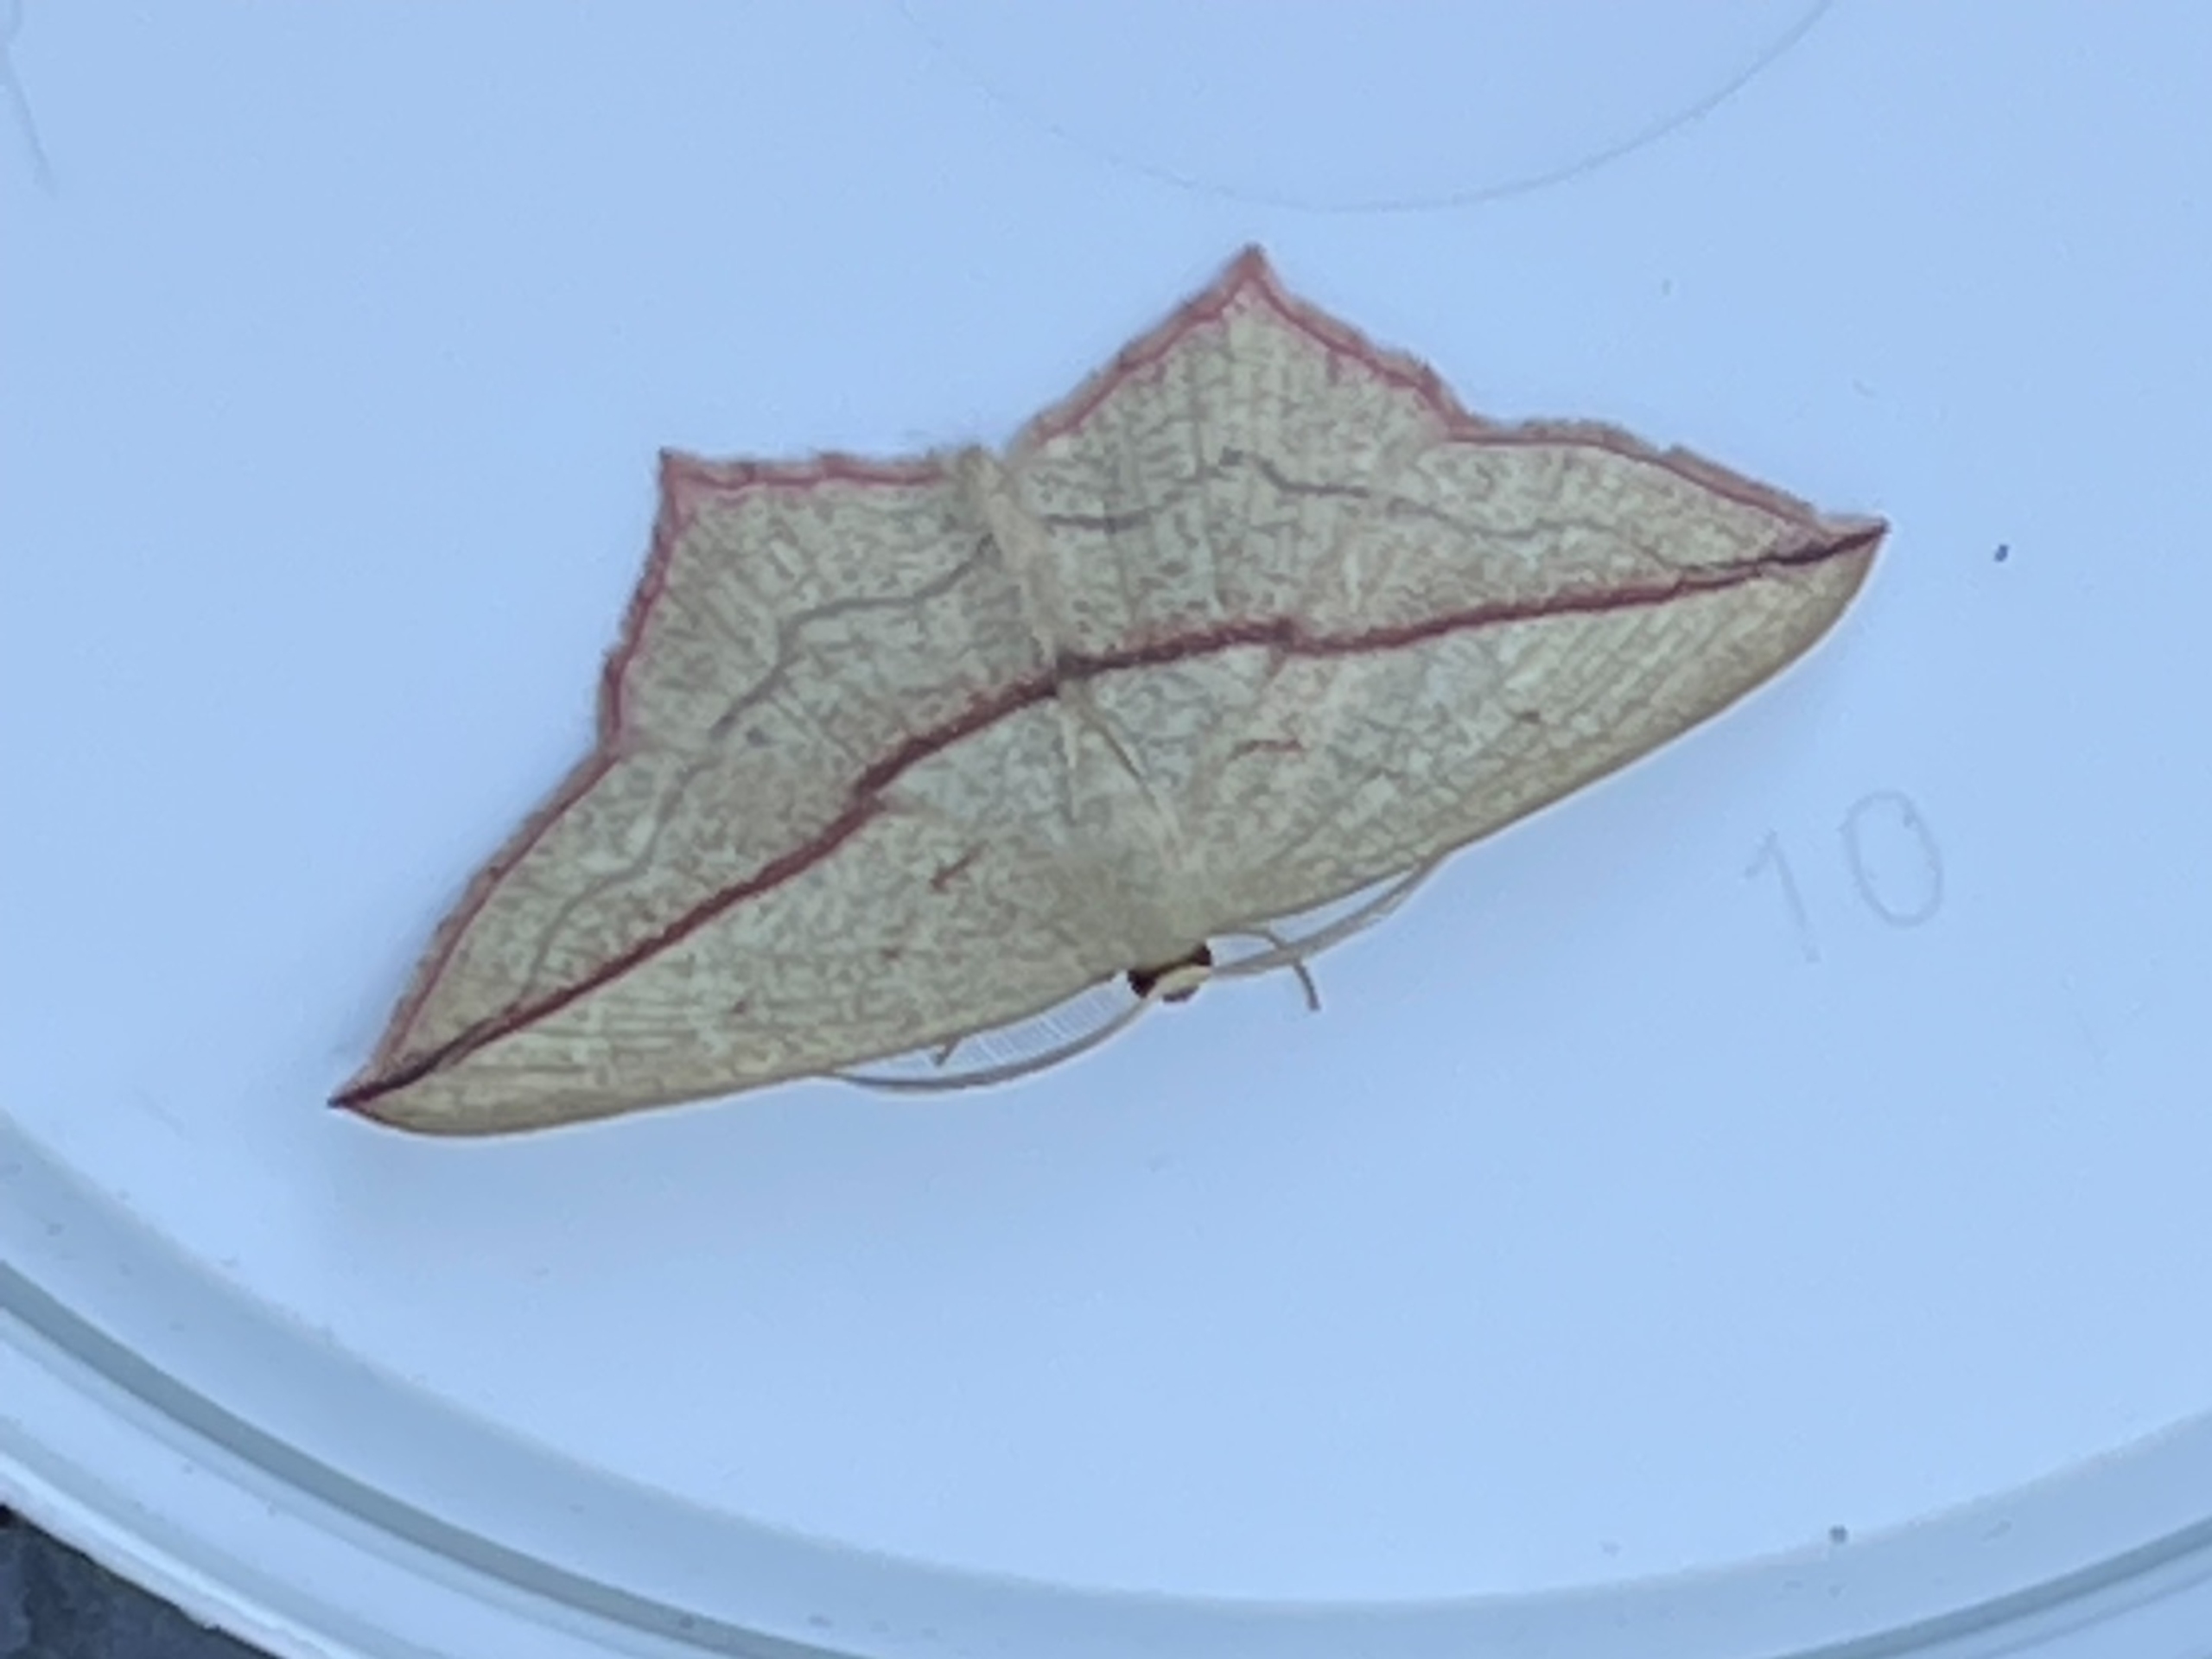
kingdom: Animalia
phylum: Arthropoda
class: Insecta
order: Lepidoptera
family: Geometridae
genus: Timandra
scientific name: Timandra comae
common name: Gul syremåler
